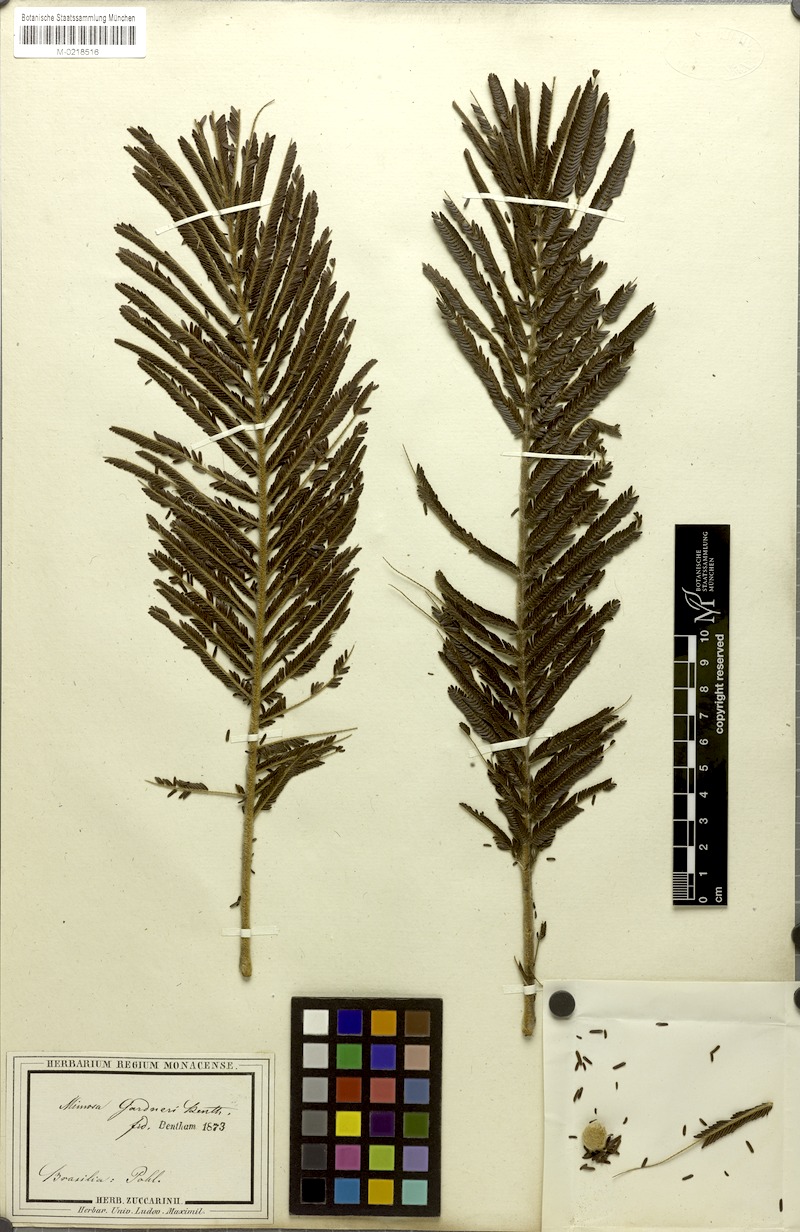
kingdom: Plantae
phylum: Tracheophyta
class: Magnoliopsida
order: Fabales
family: Fabaceae
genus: Mimosa
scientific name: Mimosa albolanata
